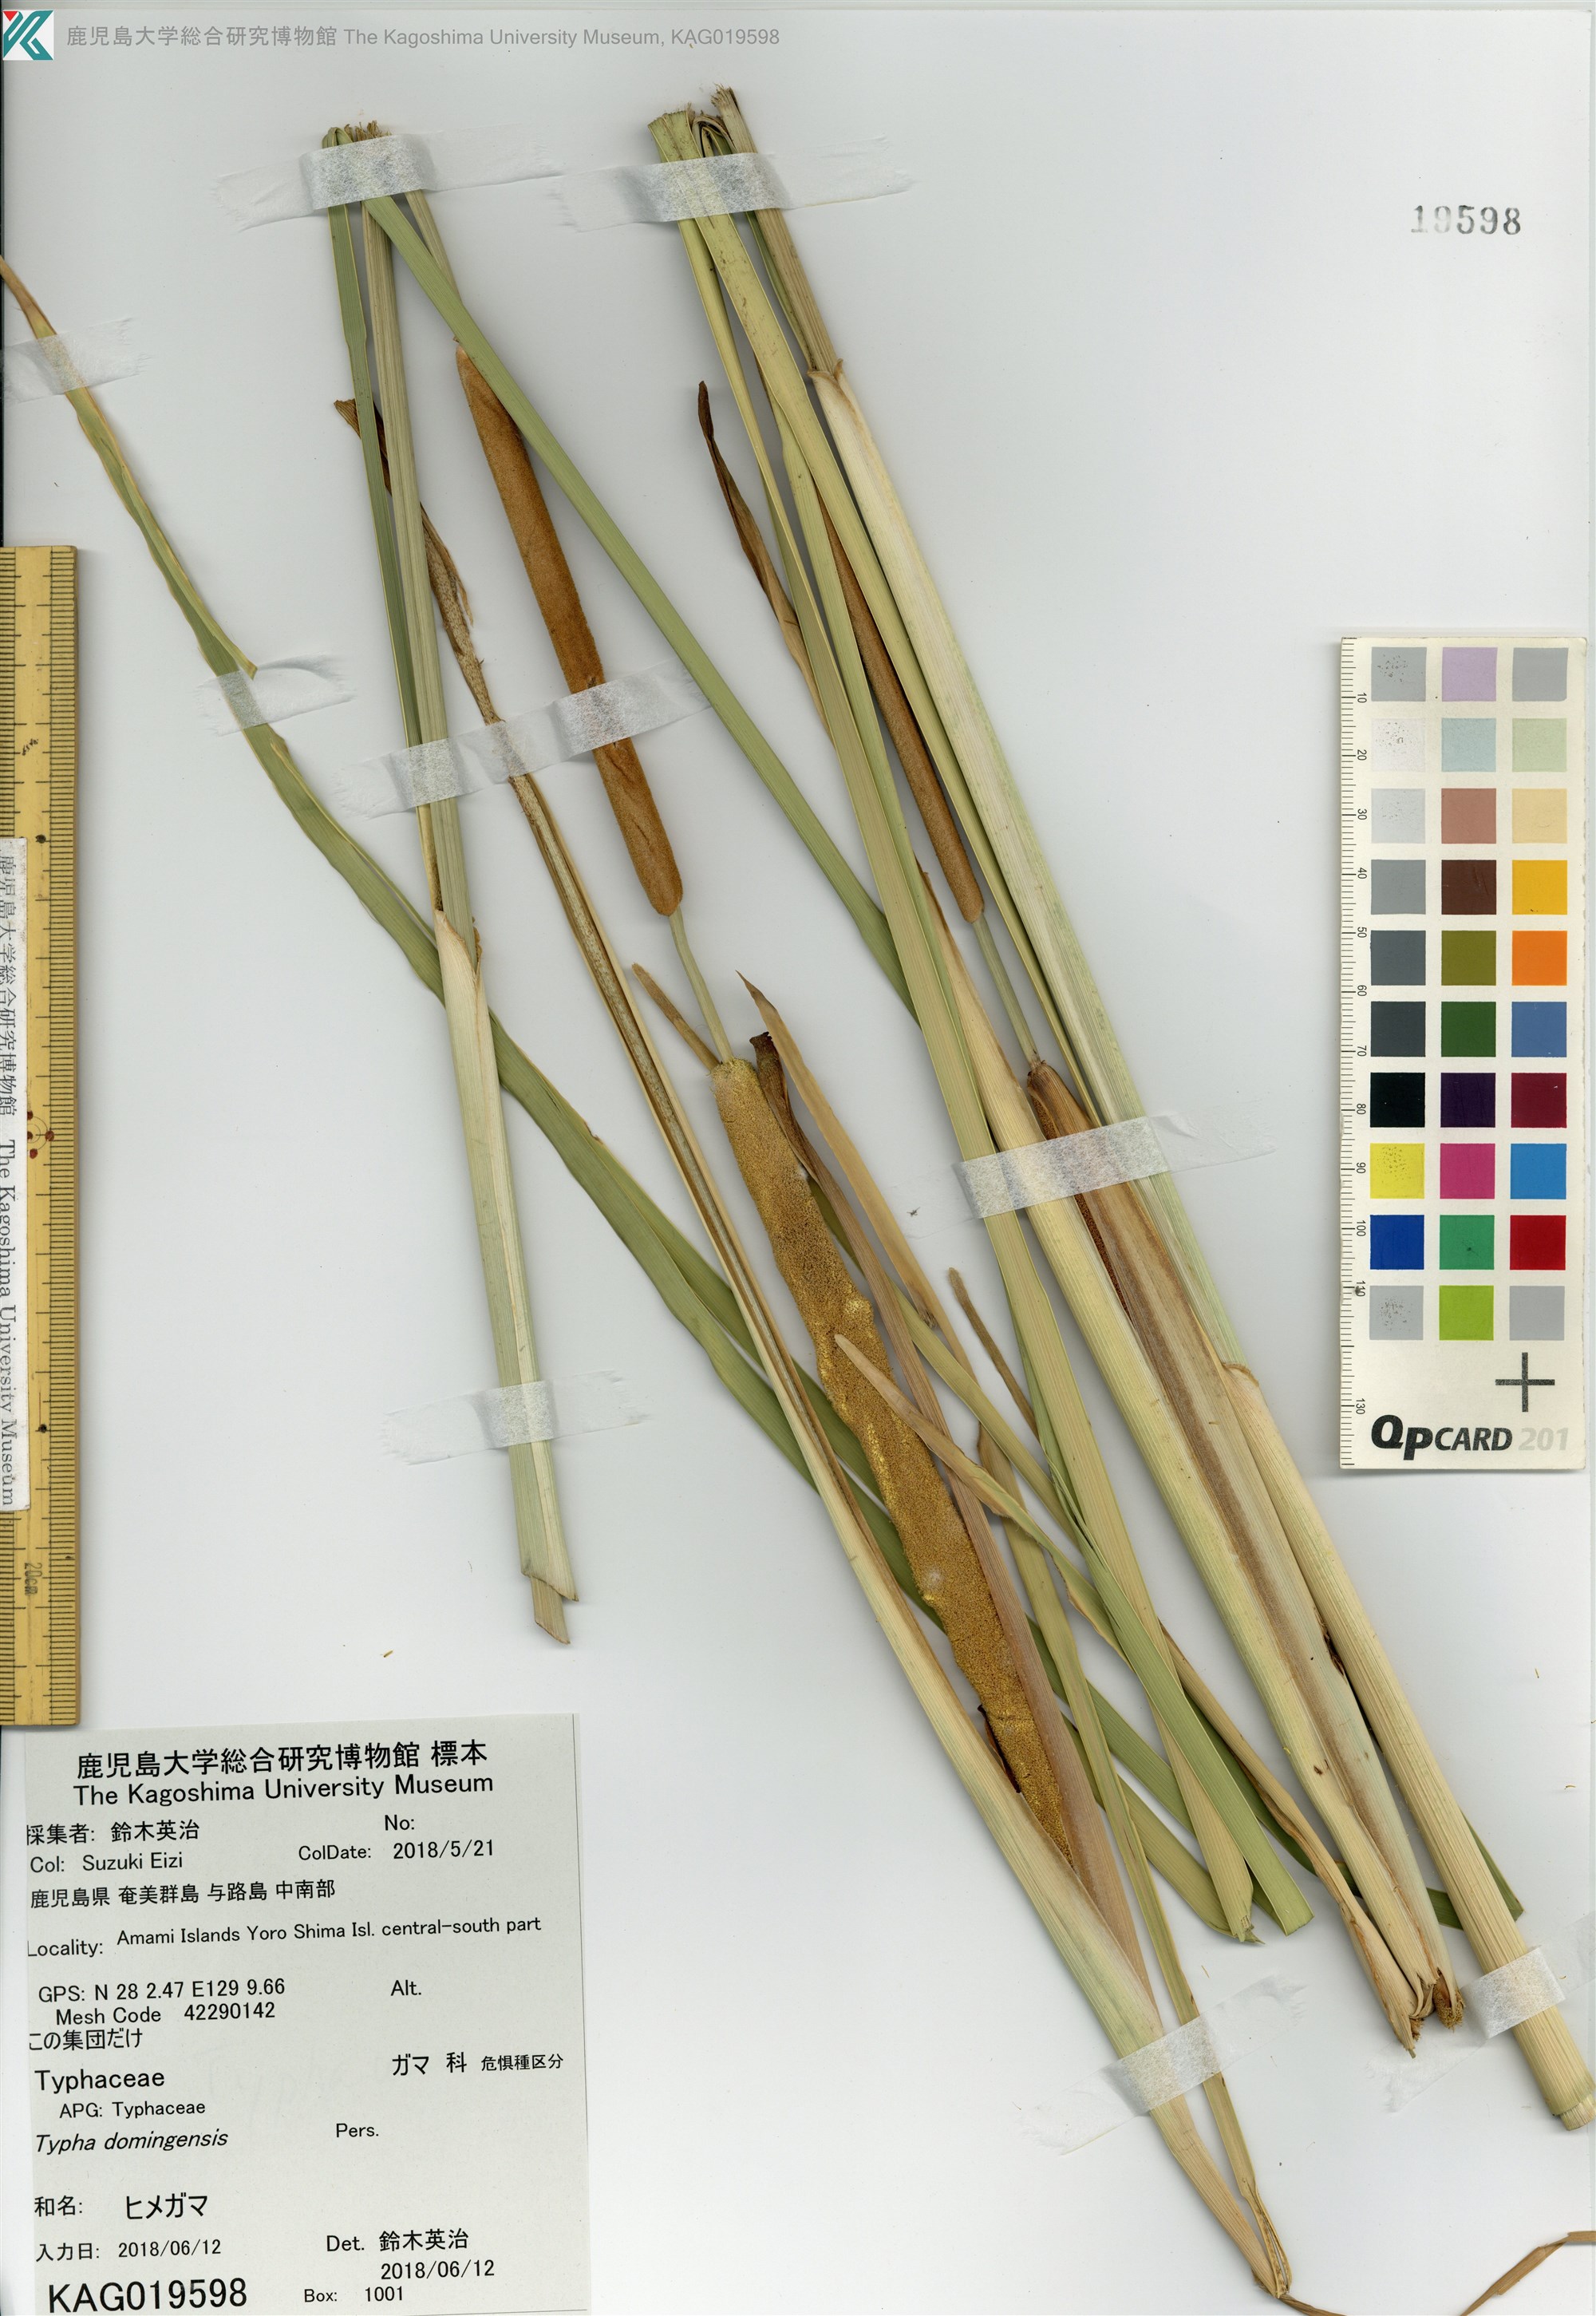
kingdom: Plantae
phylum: Tracheophyta
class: Liliopsida
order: Poales
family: Typhaceae
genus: Typha
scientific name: Typha domingensis
